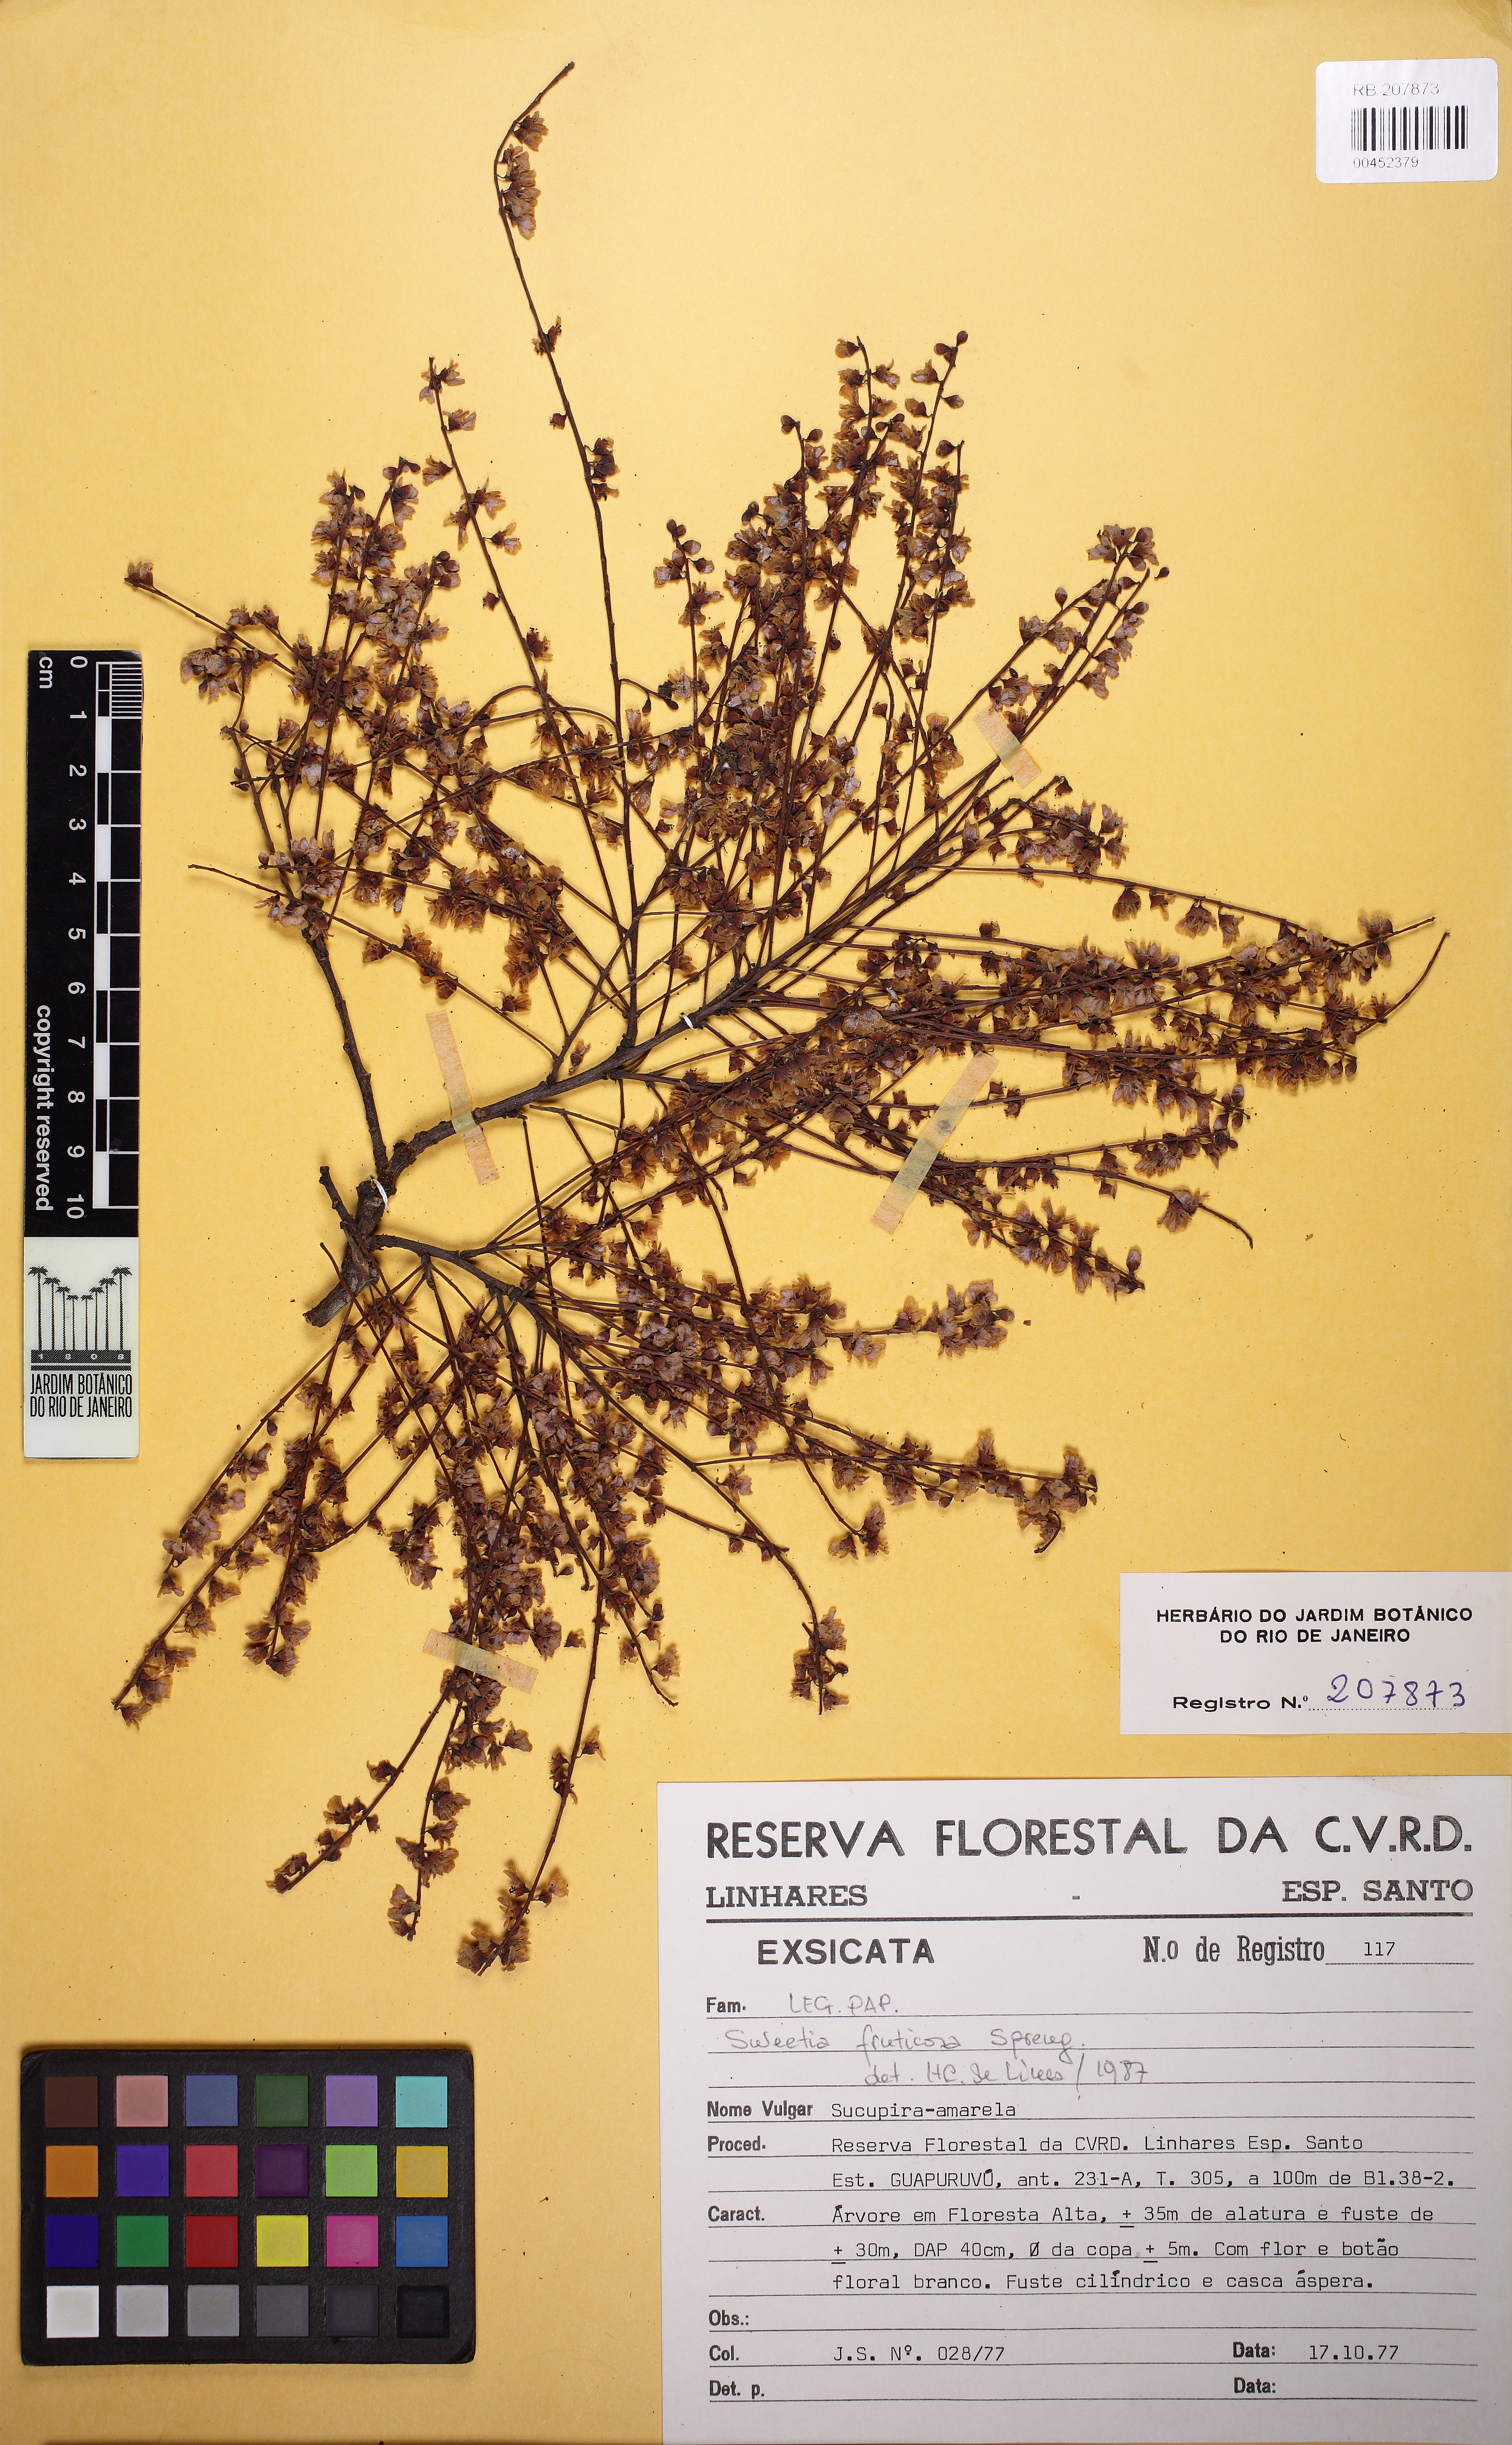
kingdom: Plantae
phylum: Tracheophyta
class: Magnoliopsida
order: Fabales
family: Fabaceae
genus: Sweetia
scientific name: Sweetia fruticosa
